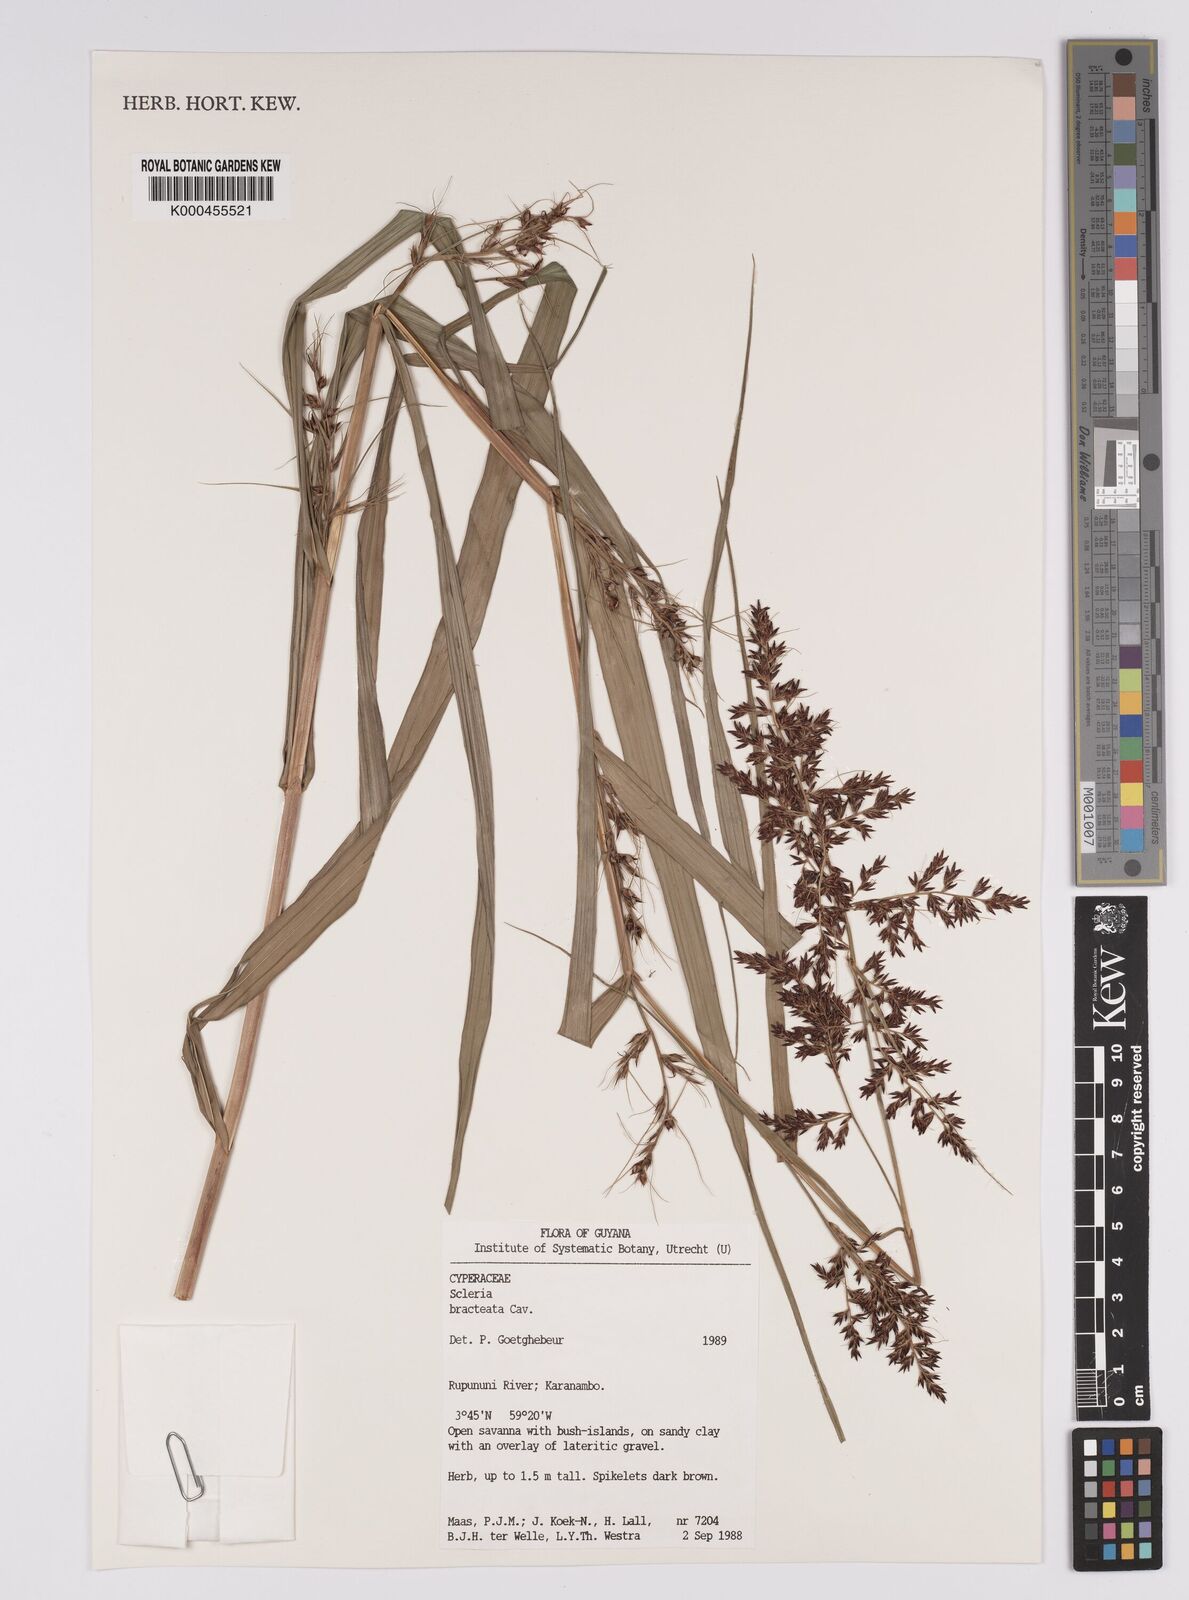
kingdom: Plantae
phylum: Tracheophyta
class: Liliopsida
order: Poales
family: Cyperaceae
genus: Scleria
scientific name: Scleria bracteata
